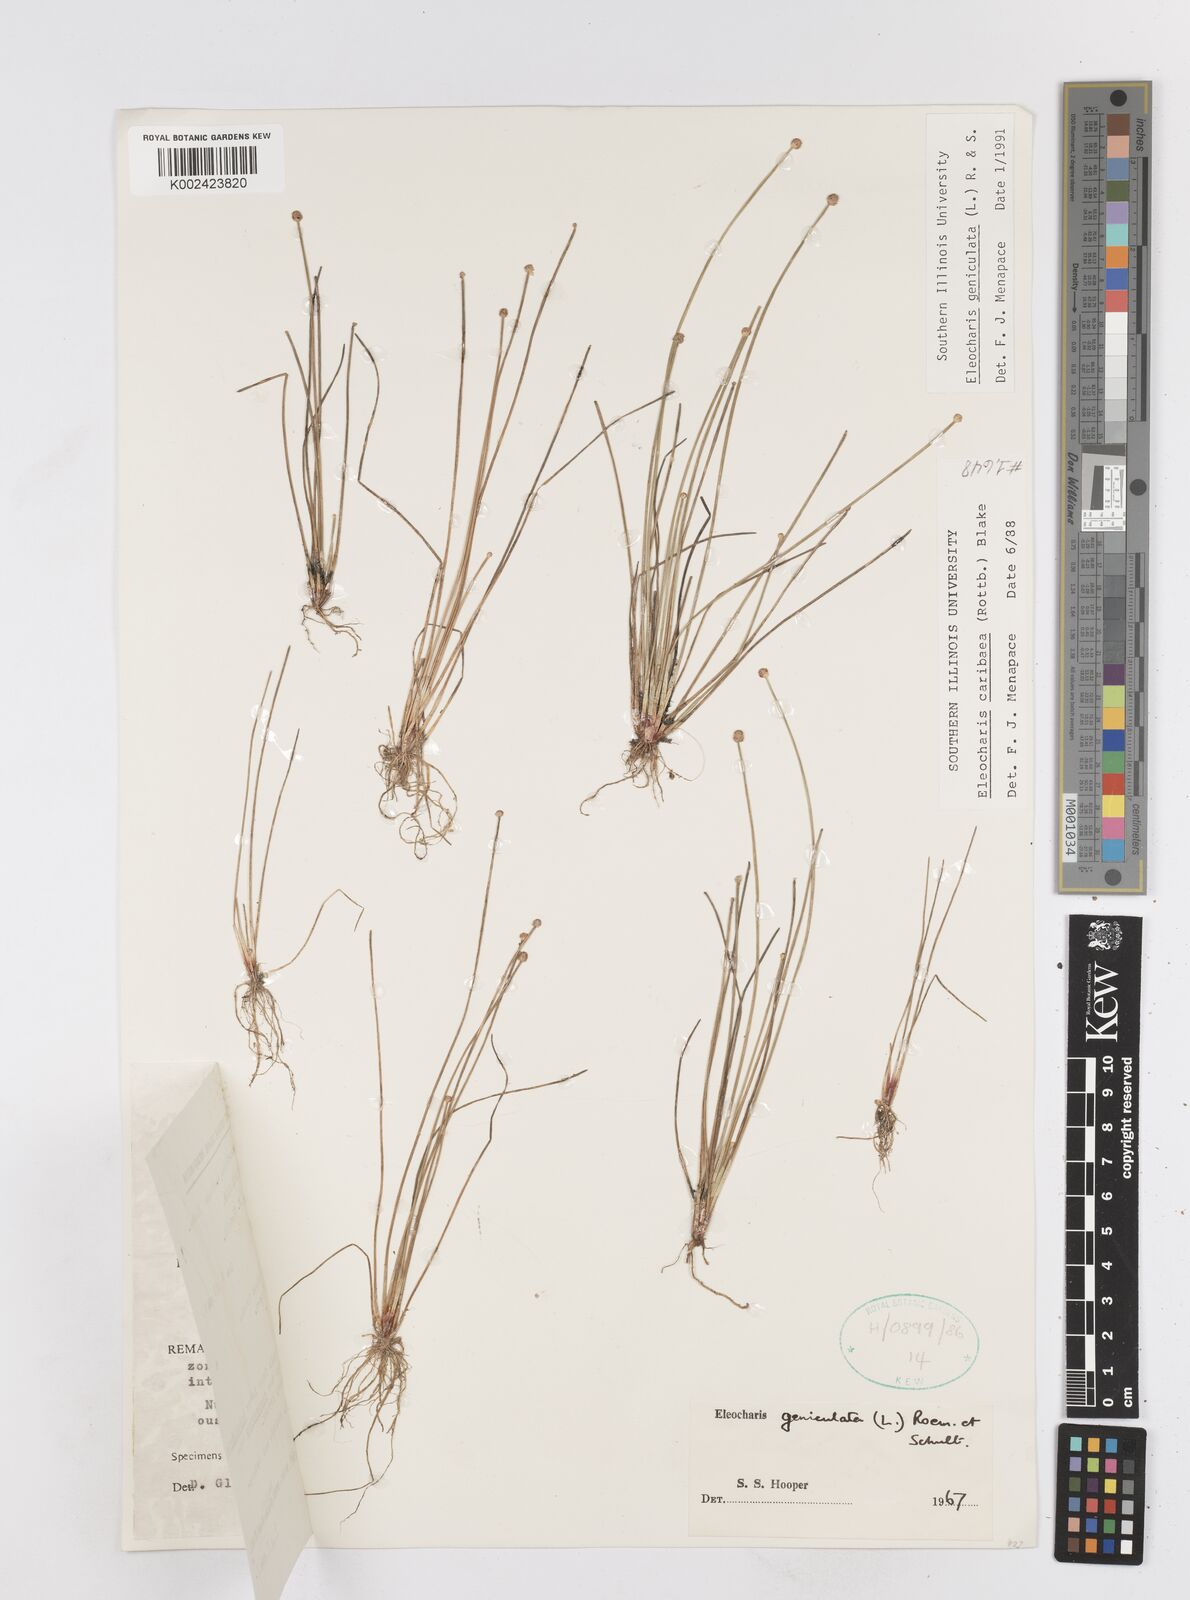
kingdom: Plantae
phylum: Tracheophyta
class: Liliopsida
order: Poales
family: Cyperaceae
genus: Eleocharis
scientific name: Eleocharis geniculata
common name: Canada spikesedge
